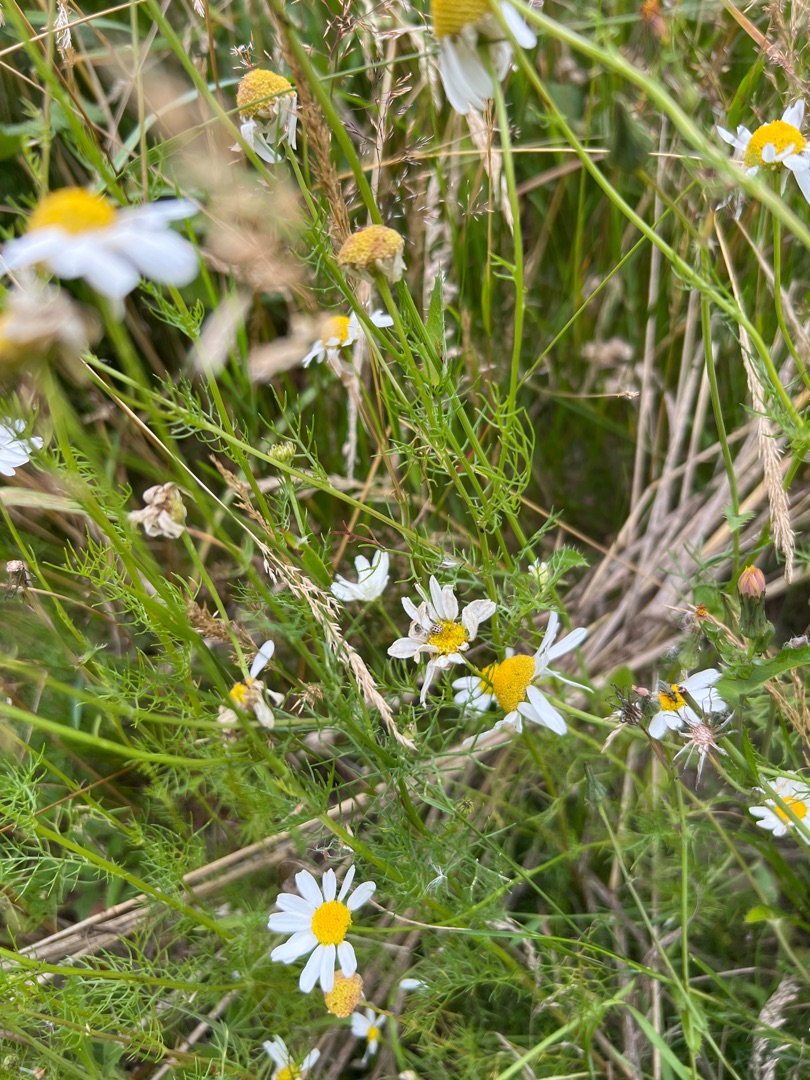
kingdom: Plantae
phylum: Tracheophyta
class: Magnoliopsida
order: Asterales
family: Asteraceae
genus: Tripleurospermum
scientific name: Tripleurospermum inodorum
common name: Lugtløs kamille
